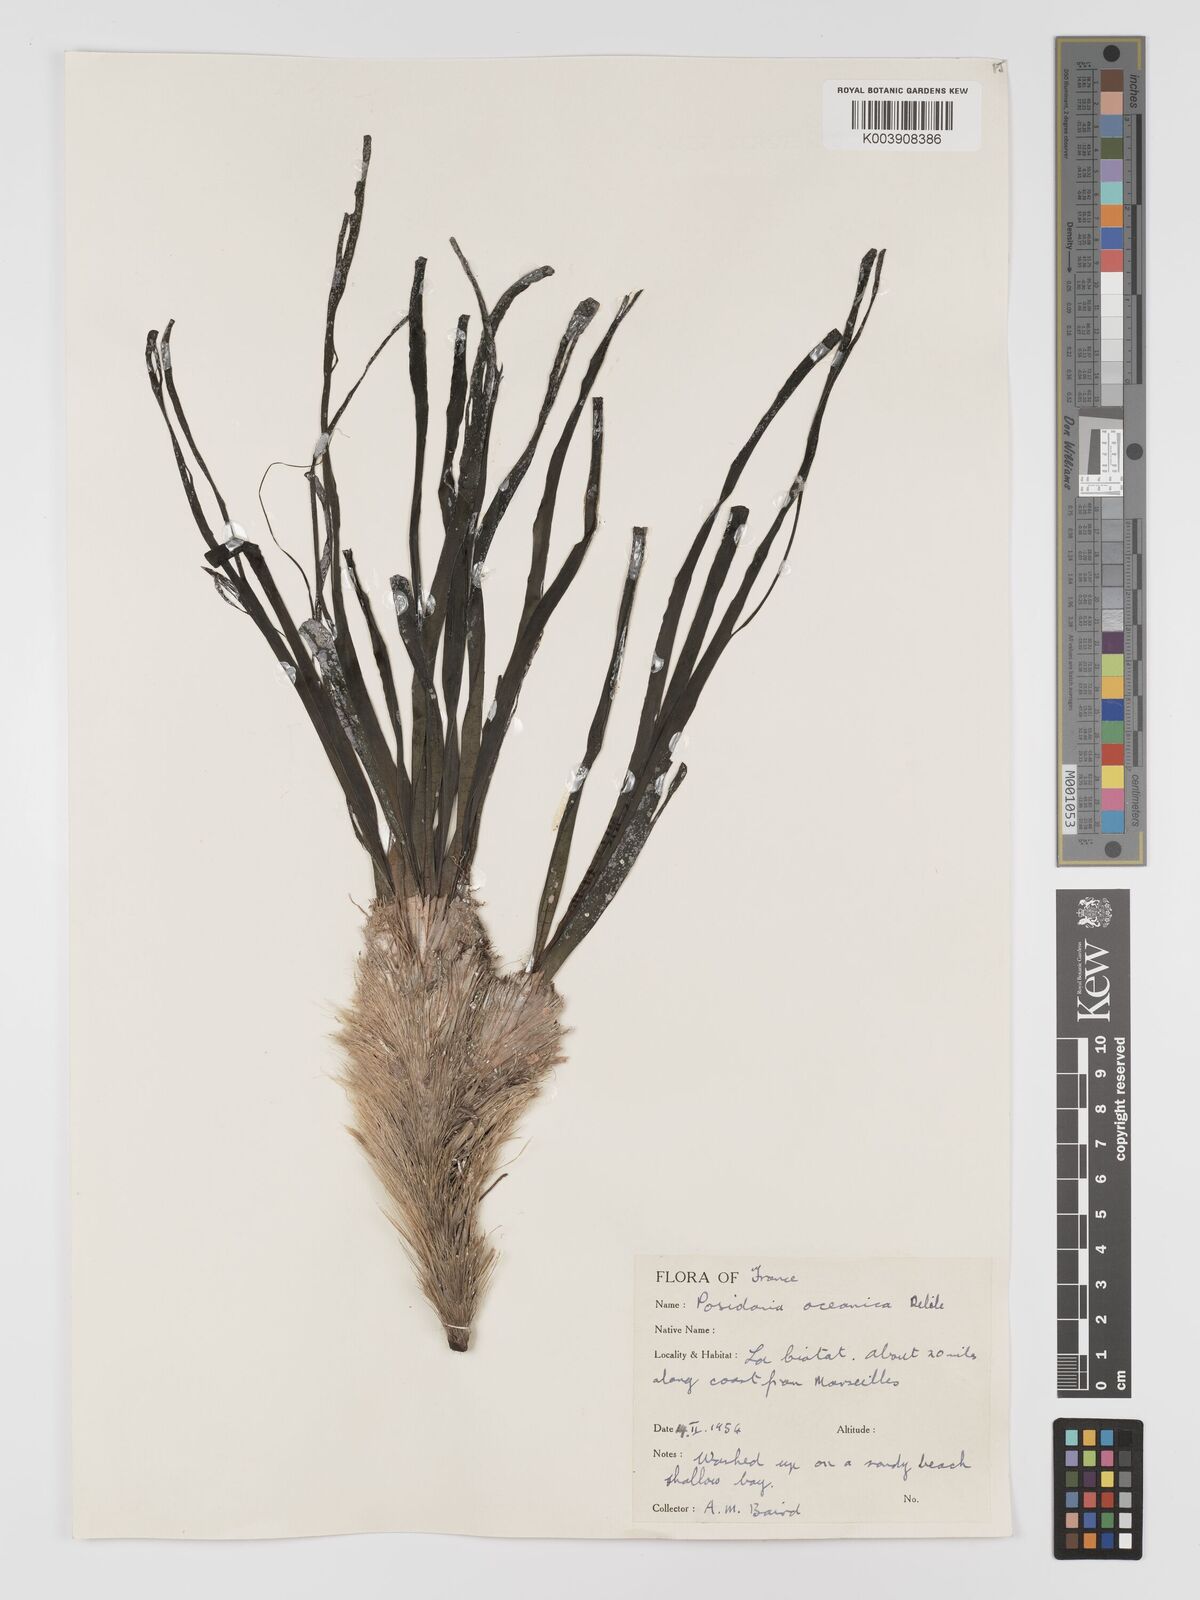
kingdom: Plantae
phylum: Tracheophyta
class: Liliopsida
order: Alismatales
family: Posidoniaceae
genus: Posidonia
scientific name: Posidonia oceanica
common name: Mediterranean tapeweed
